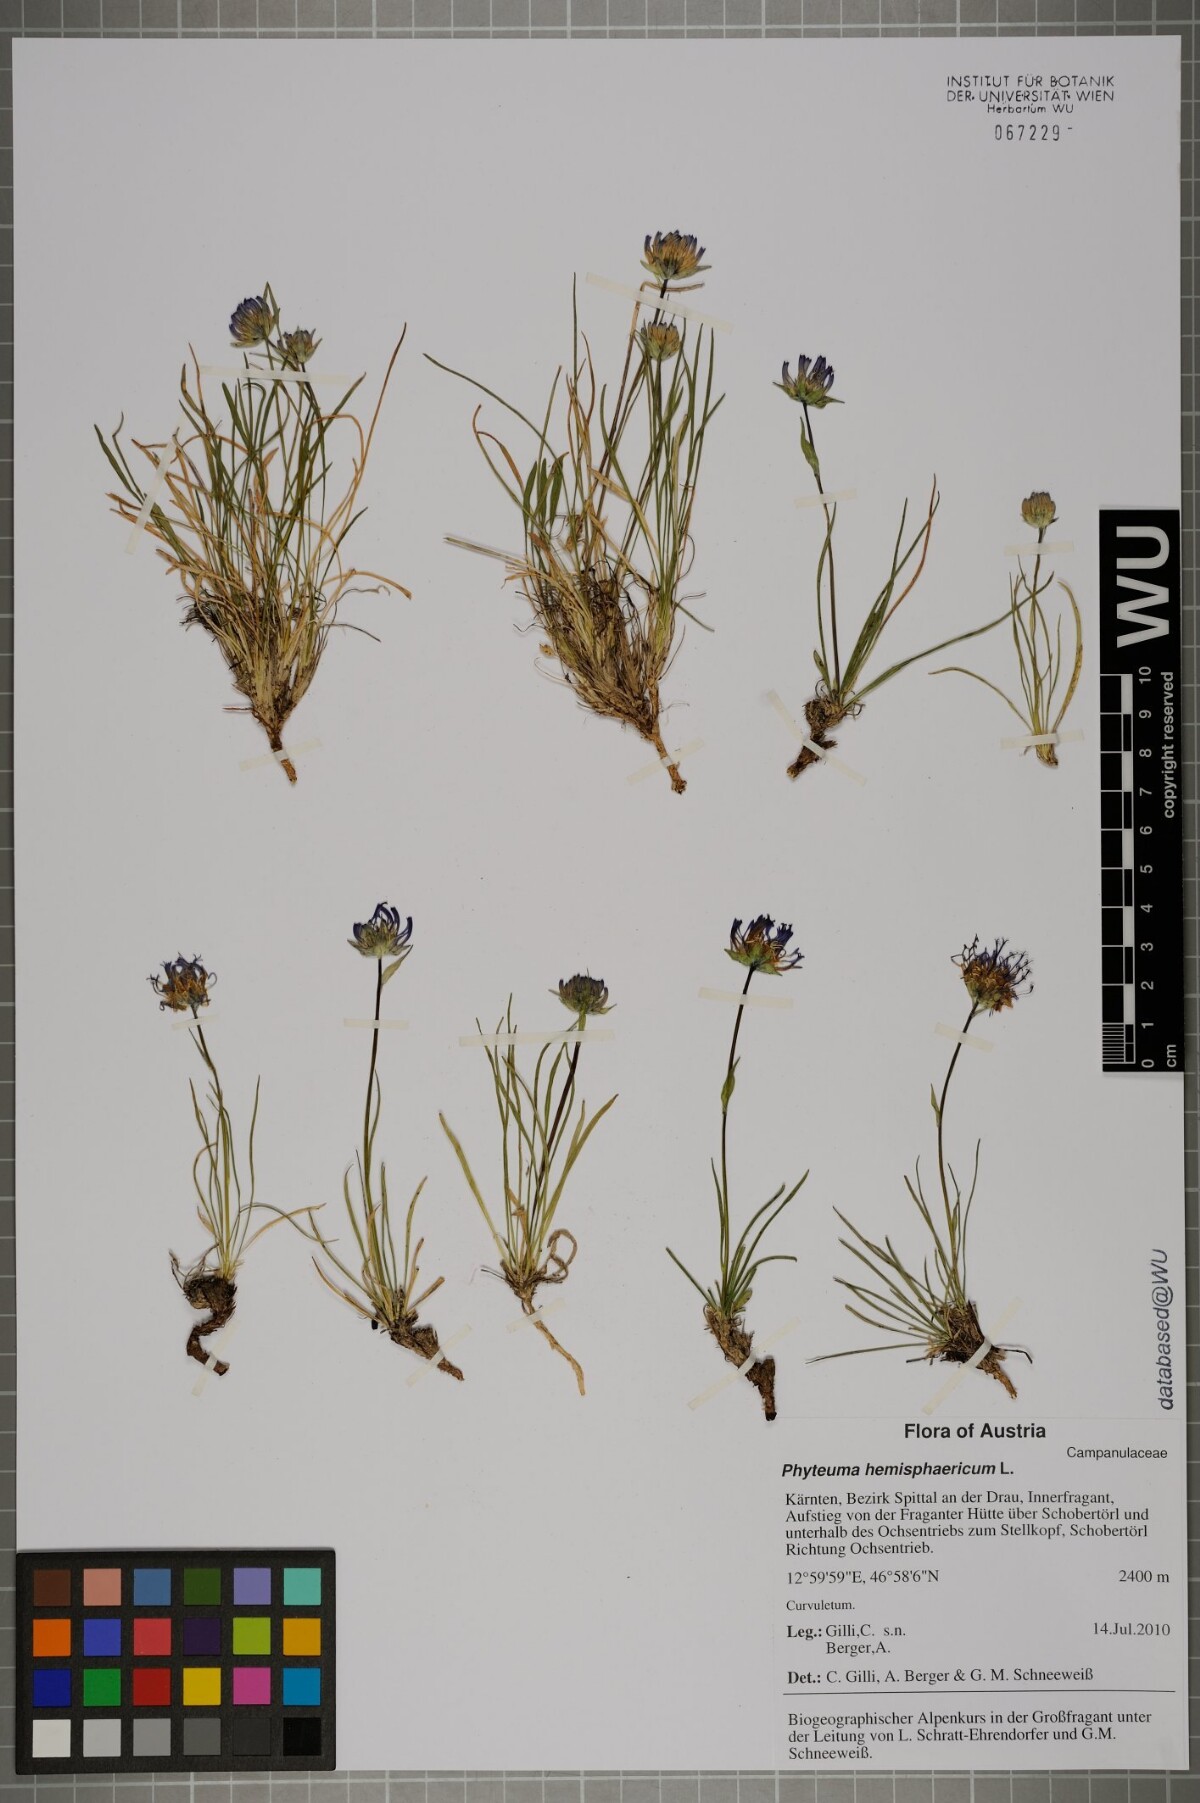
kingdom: Plantae
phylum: Tracheophyta
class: Magnoliopsida
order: Asterales
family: Campanulaceae
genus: Phyteuma
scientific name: Phyteuma hemisphaericum
